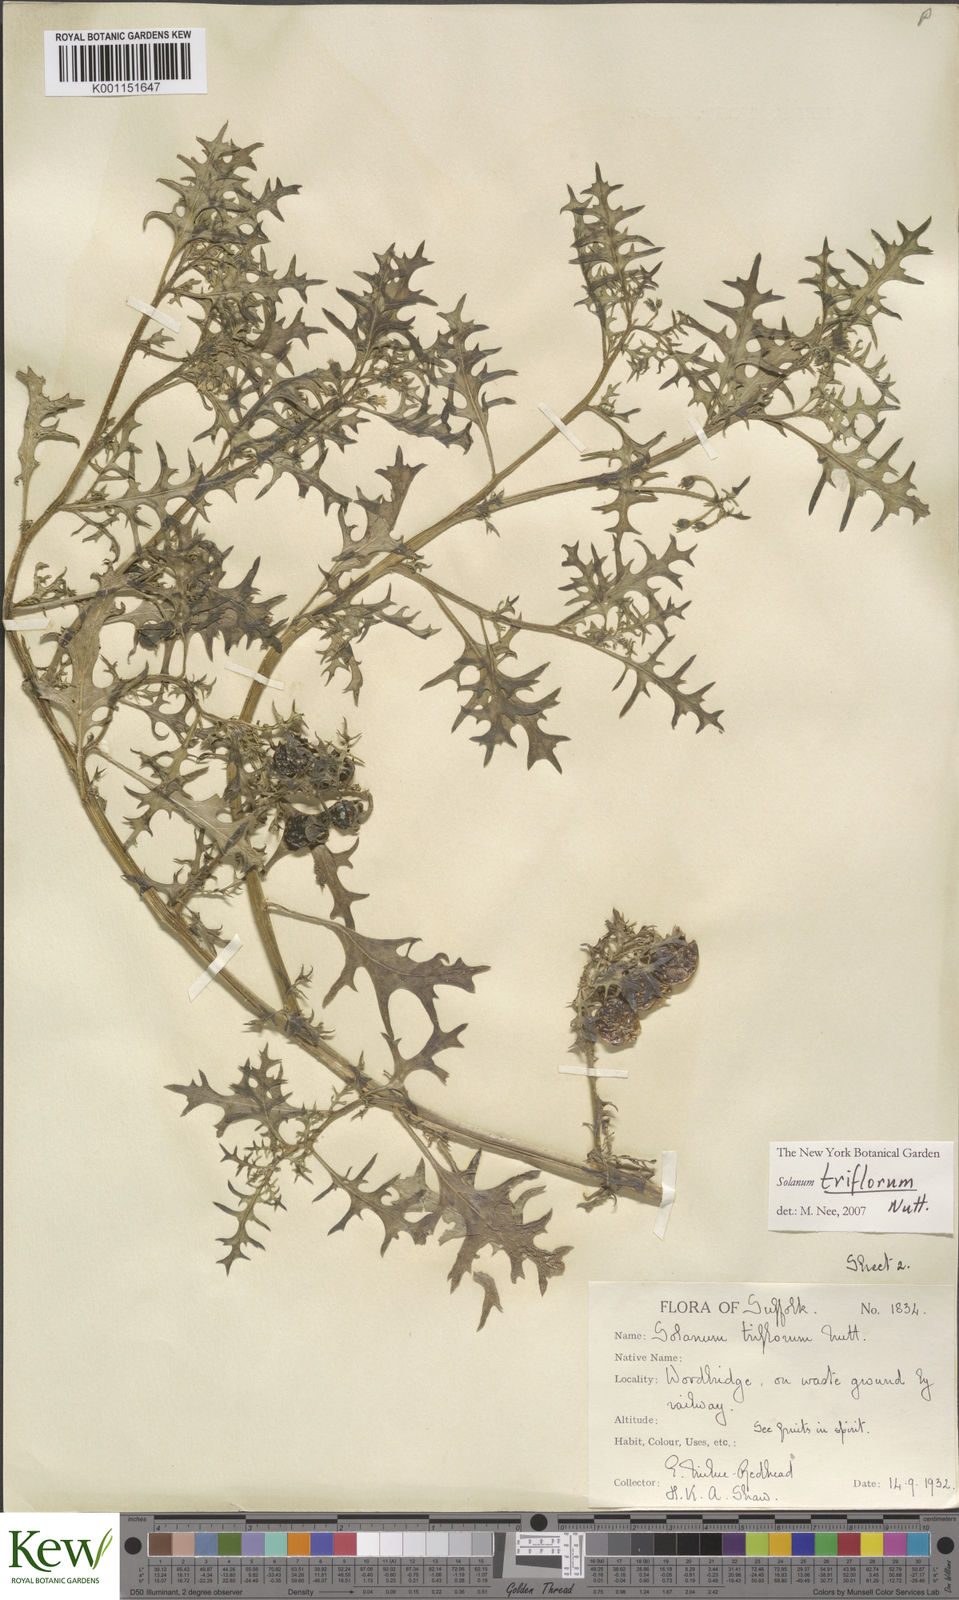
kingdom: Plantae
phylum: Tracheophyta
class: Magnoliopsida
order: Solanales
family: Solanaceae
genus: Solanum
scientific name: Solanum triflorum
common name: Small nightshade
